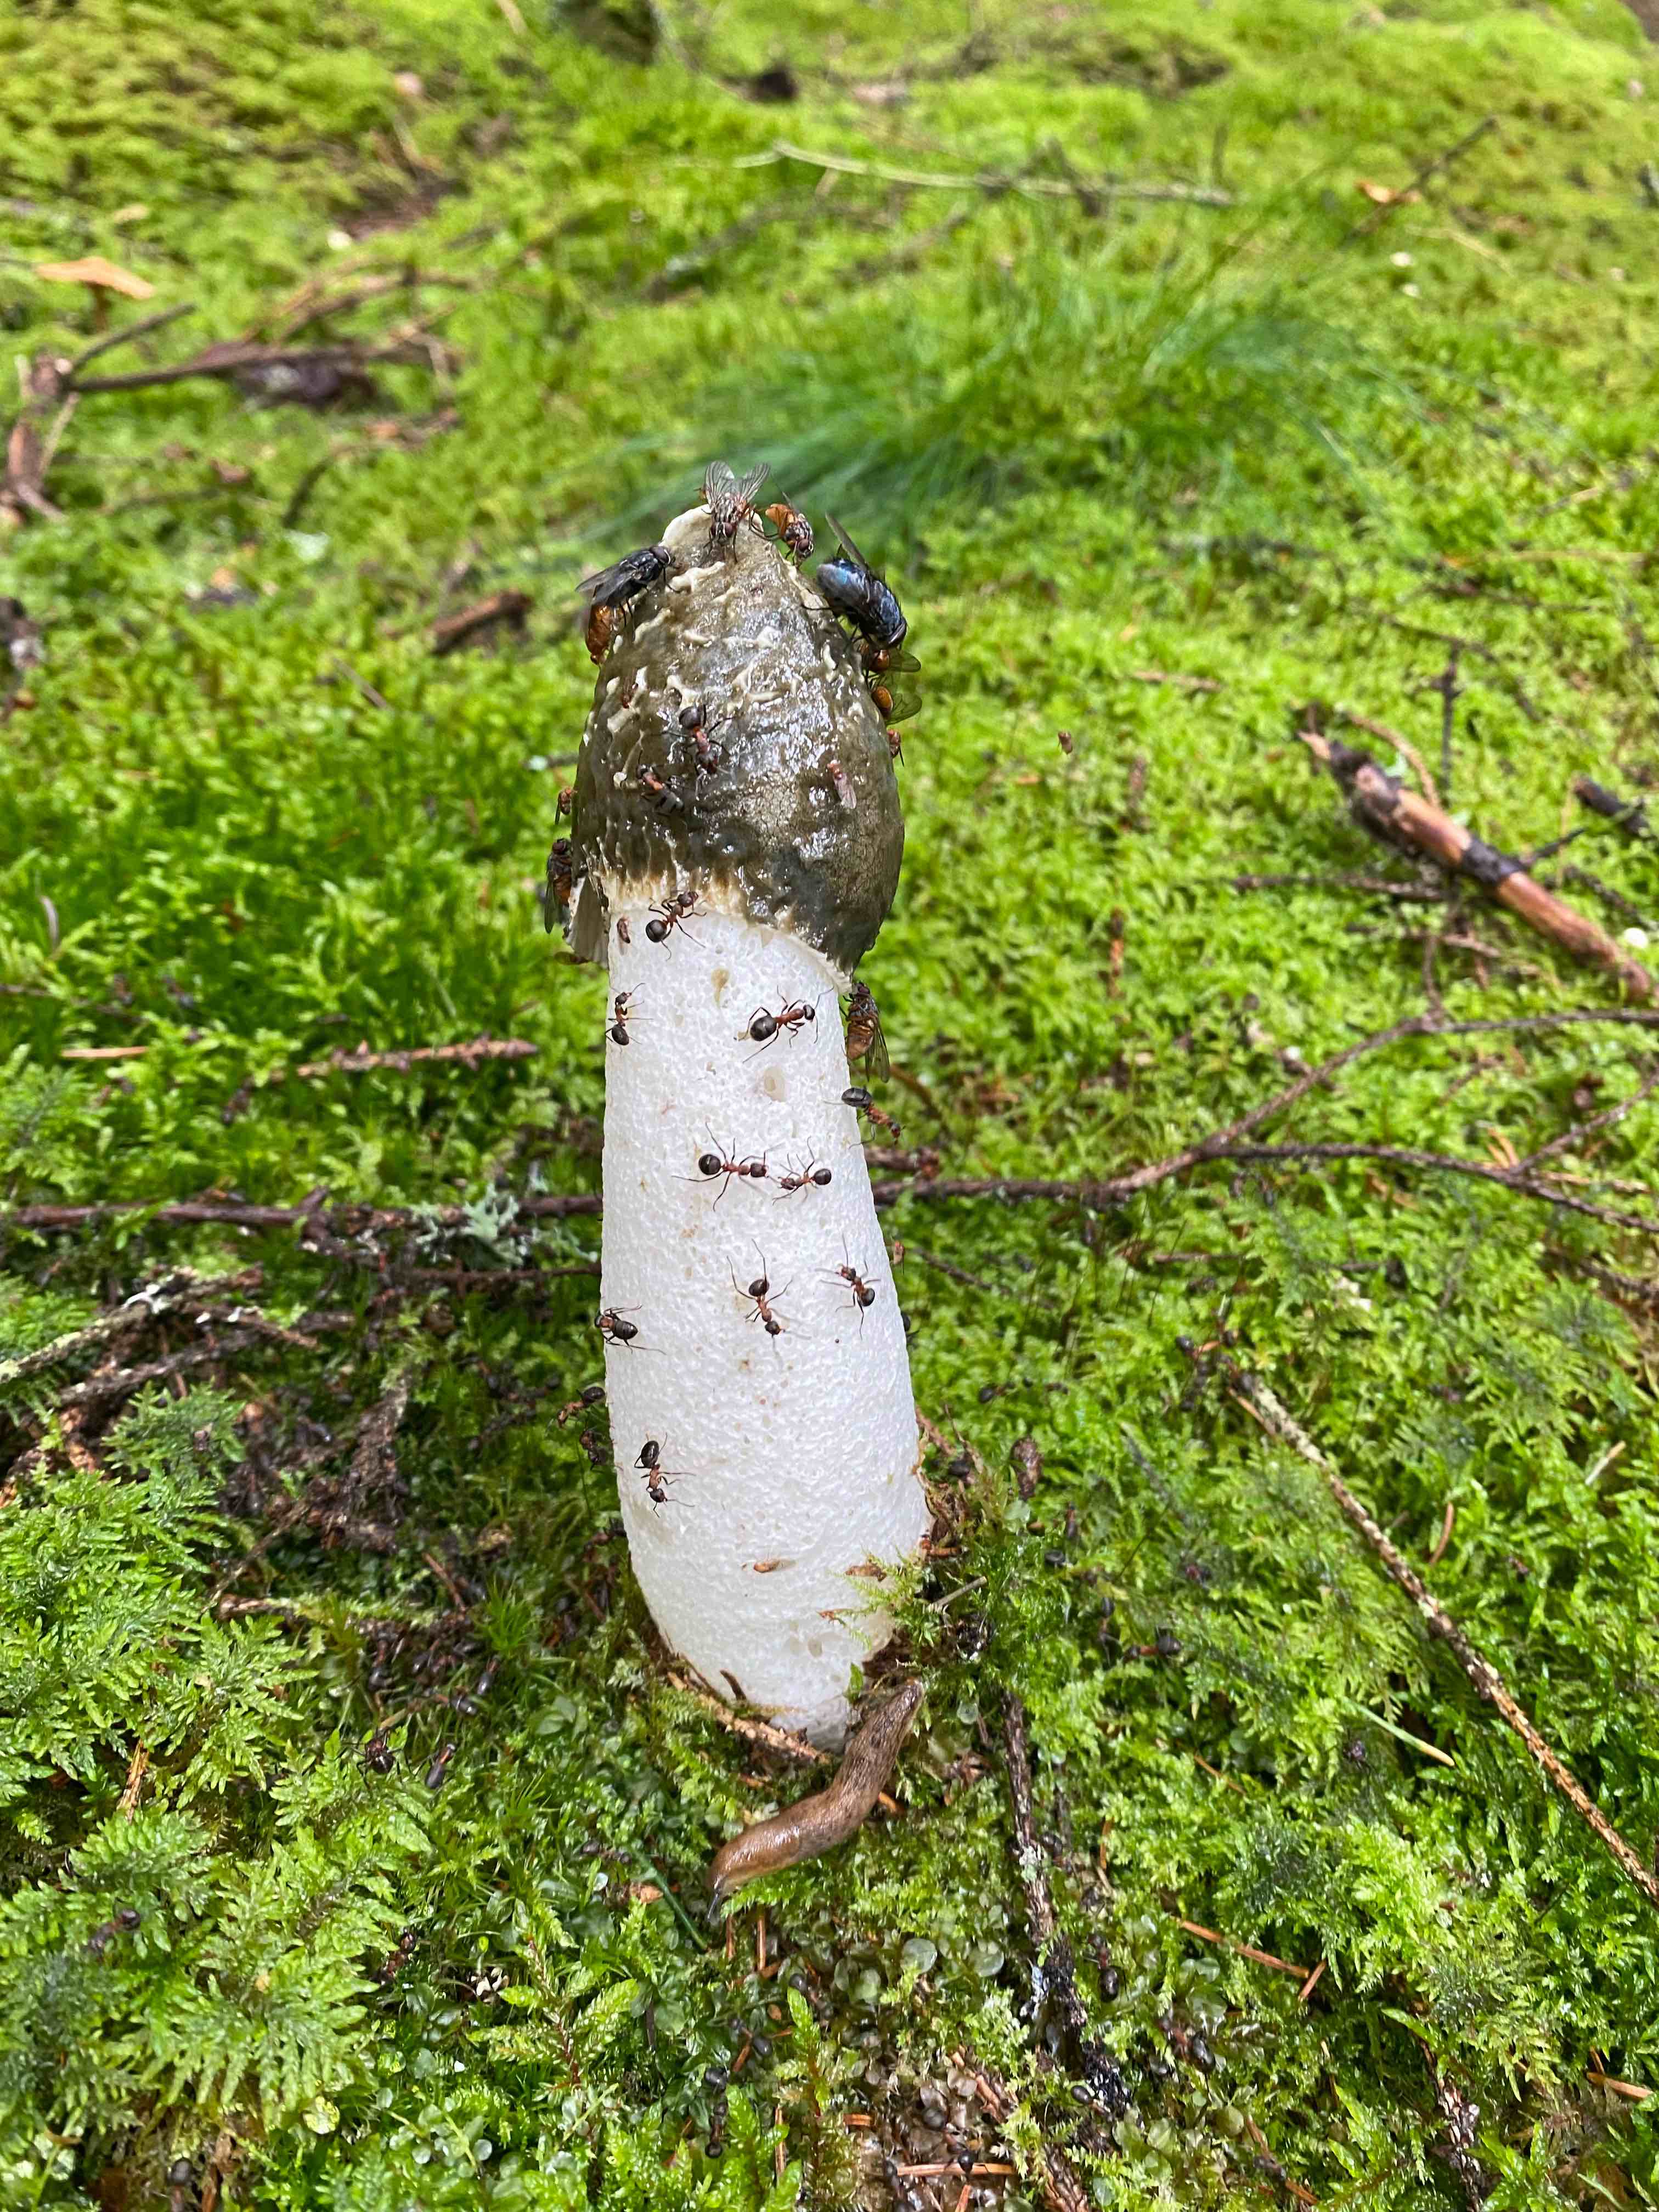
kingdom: Fungi
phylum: Basidiomycota
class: Agaricomycetes
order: Phallales
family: Phallaceae
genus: Phallus
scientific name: Phallus impudicus
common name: almindelig stinksvamp
